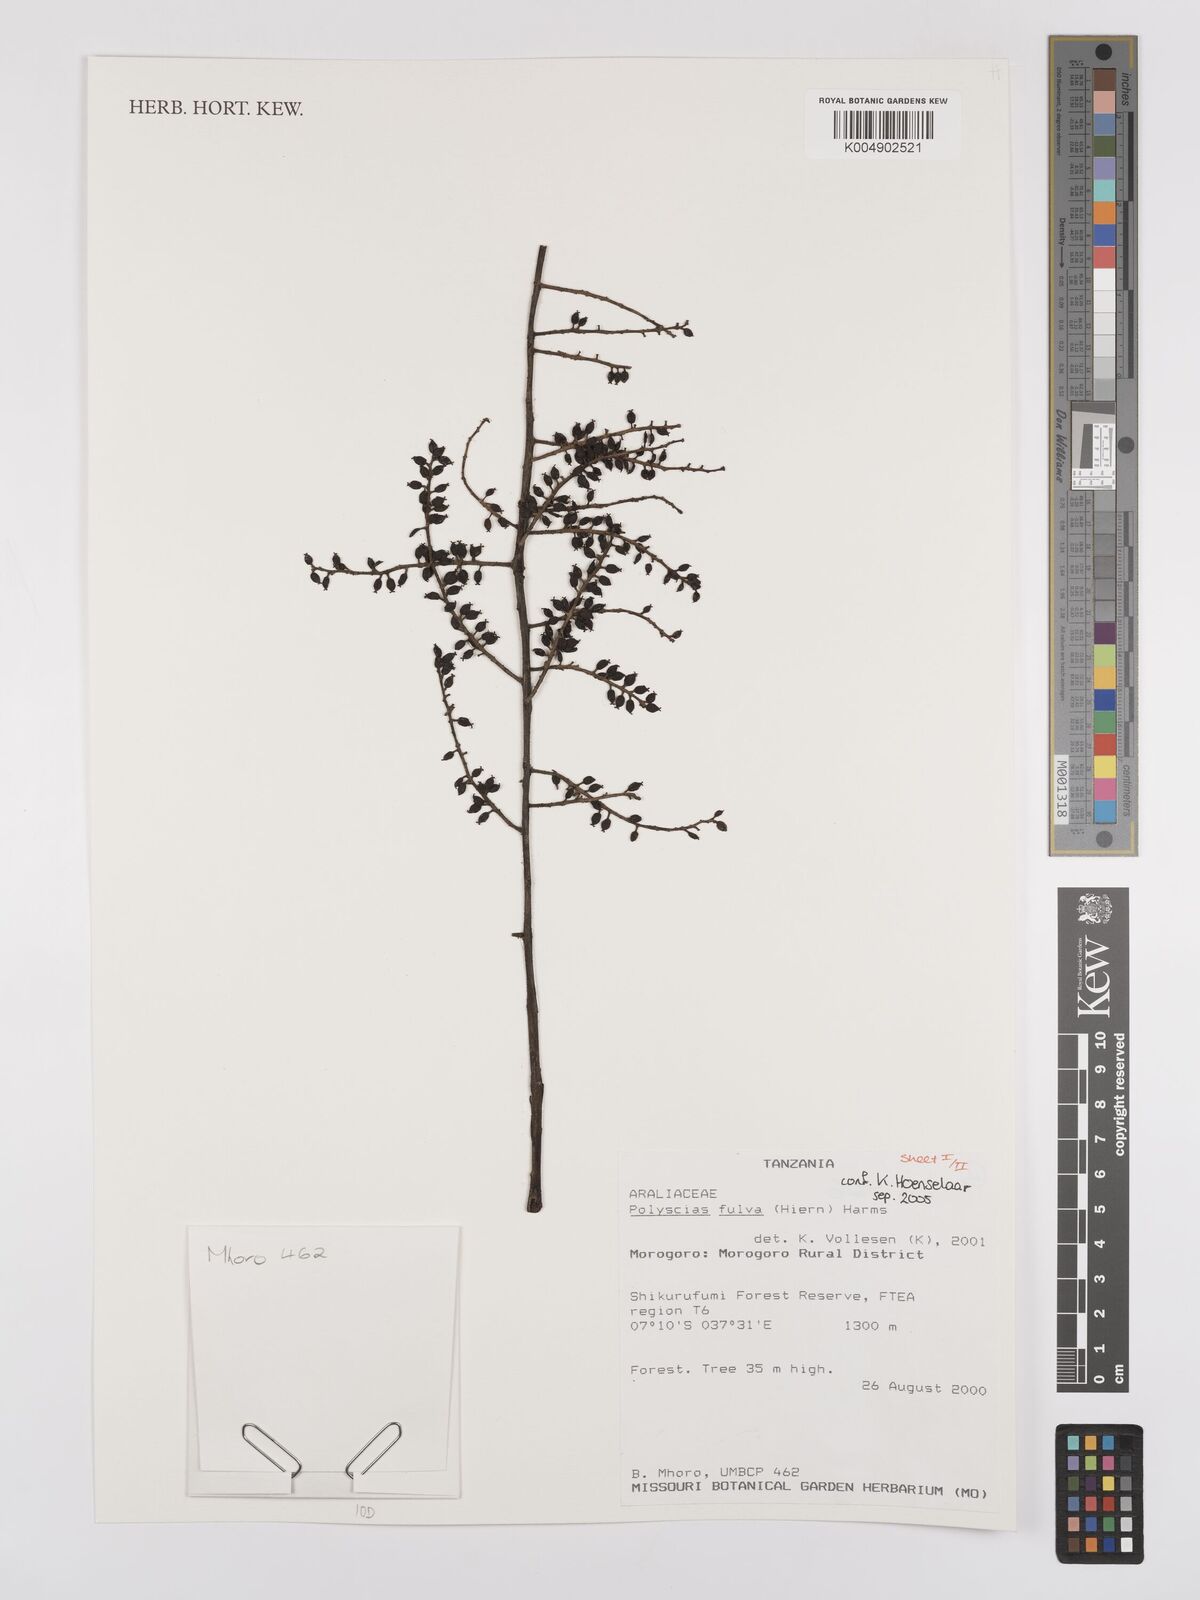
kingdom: Plantae
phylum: Tracheophyta
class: Magnoliopsida
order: Apiales
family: Araliaceae
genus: Polyscias
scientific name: Polyscias fulva
